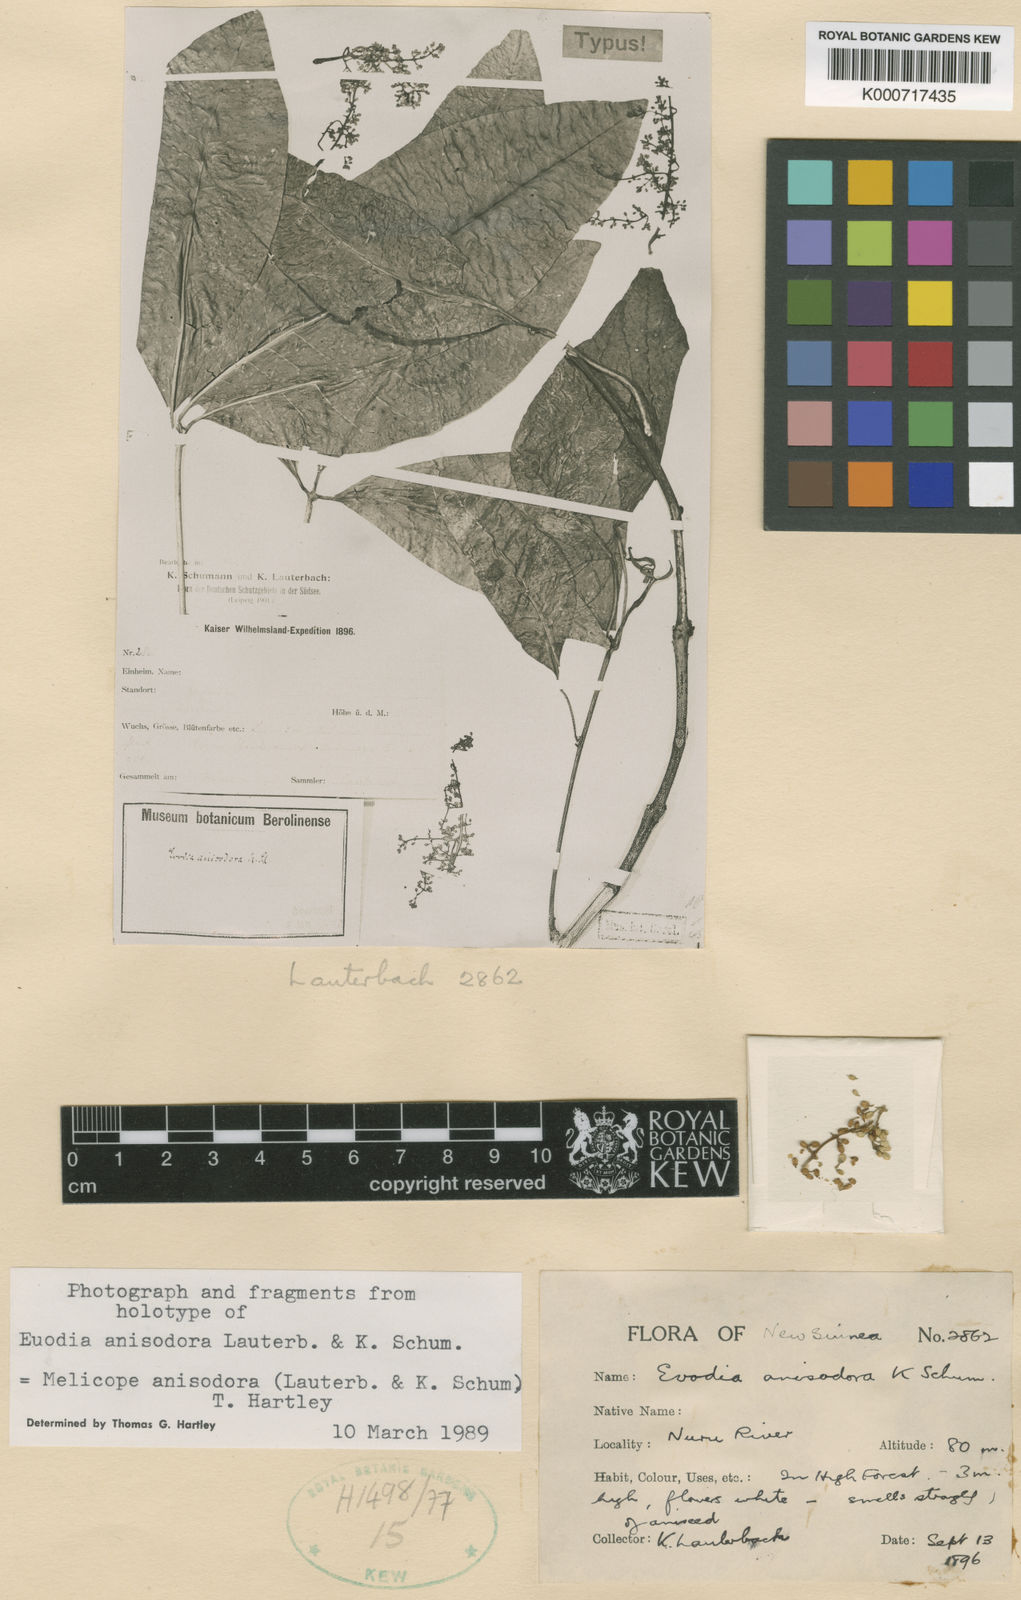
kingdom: Plantae
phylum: Tracheophyta
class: Magnoliopsida
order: Sapindales
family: Rutaceae
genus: Melicope
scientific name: Melicope
